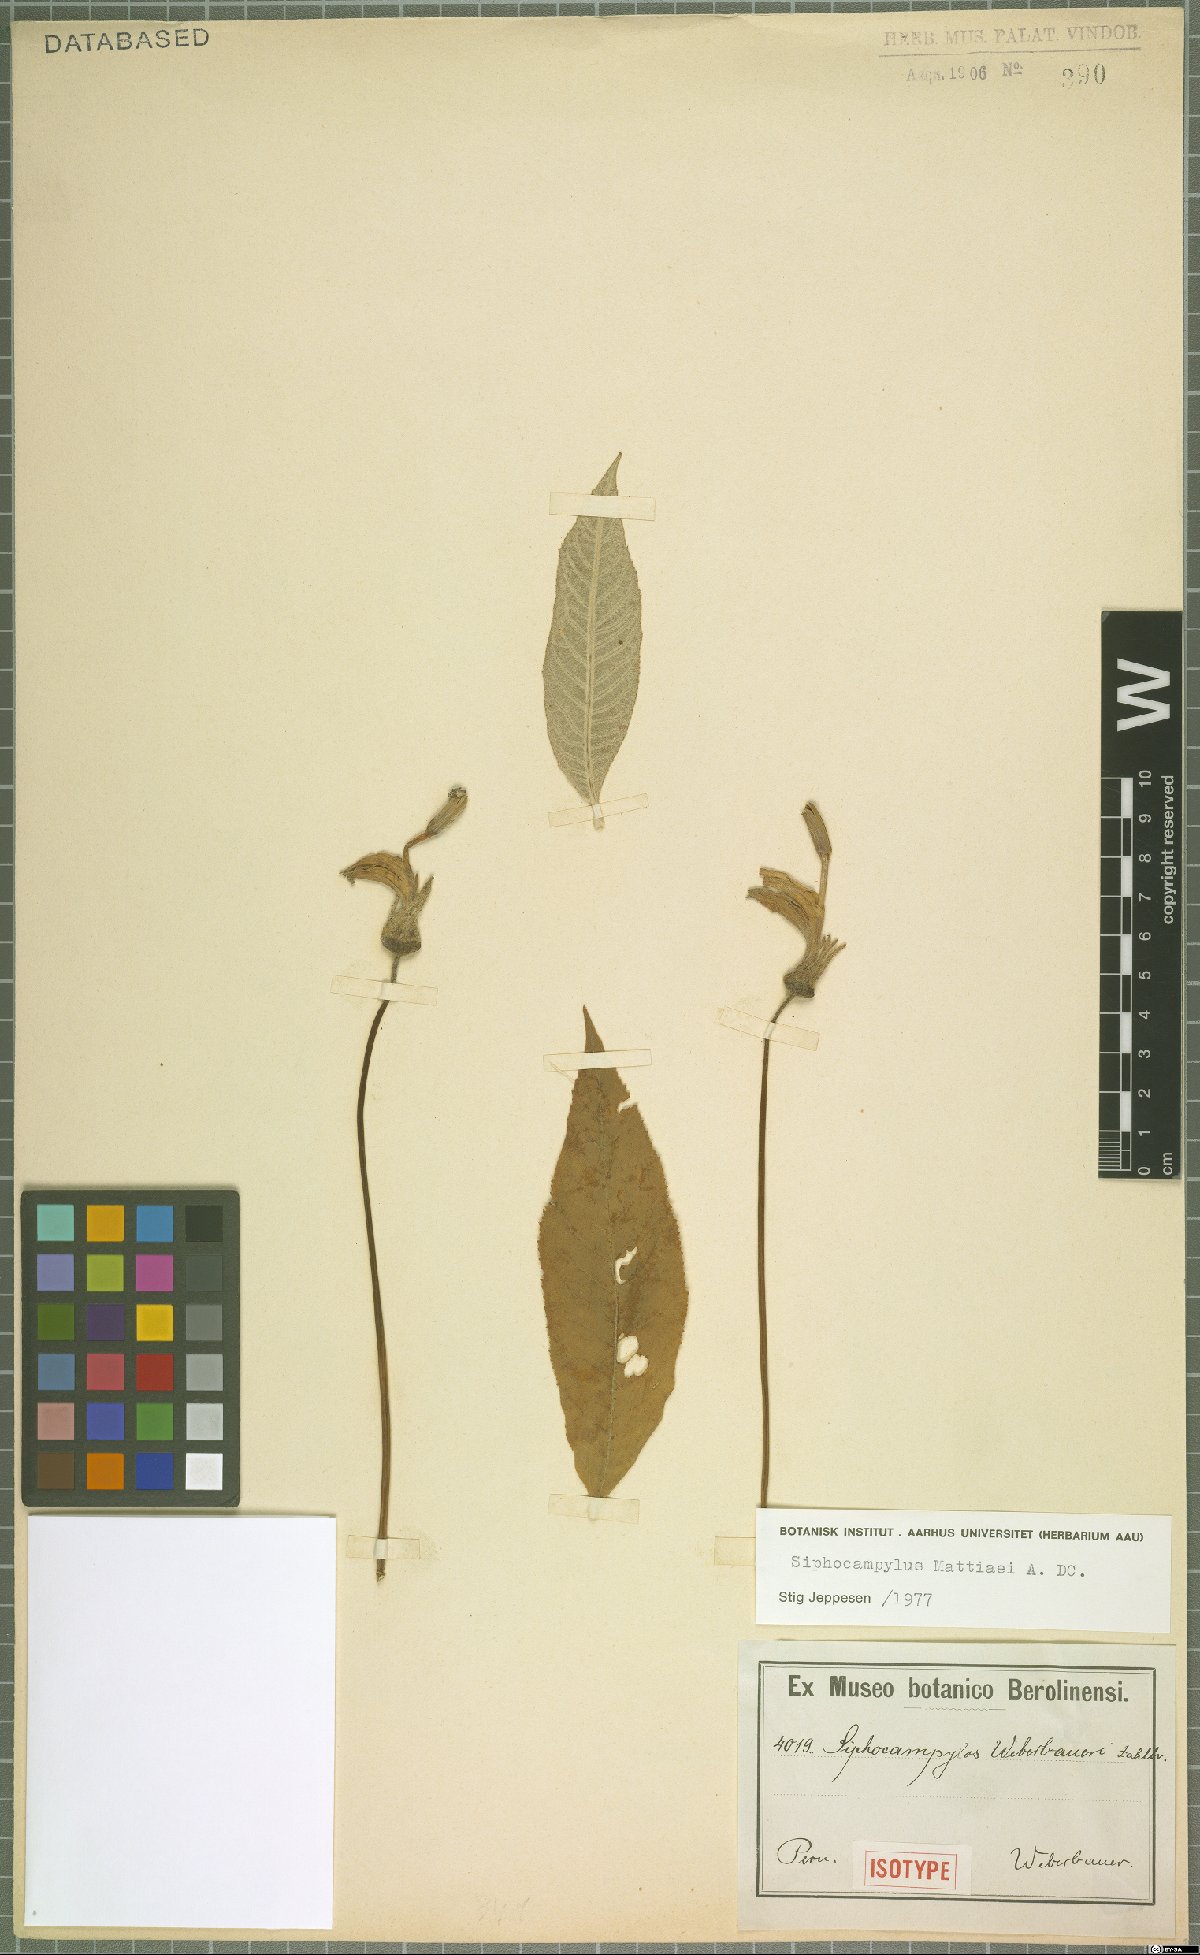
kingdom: Plantae
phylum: Tracheophyta
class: Magnoliopsida
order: Asterales
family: Campanulaceae
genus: Siphocampylus
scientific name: Siphocampylus matthiaei
